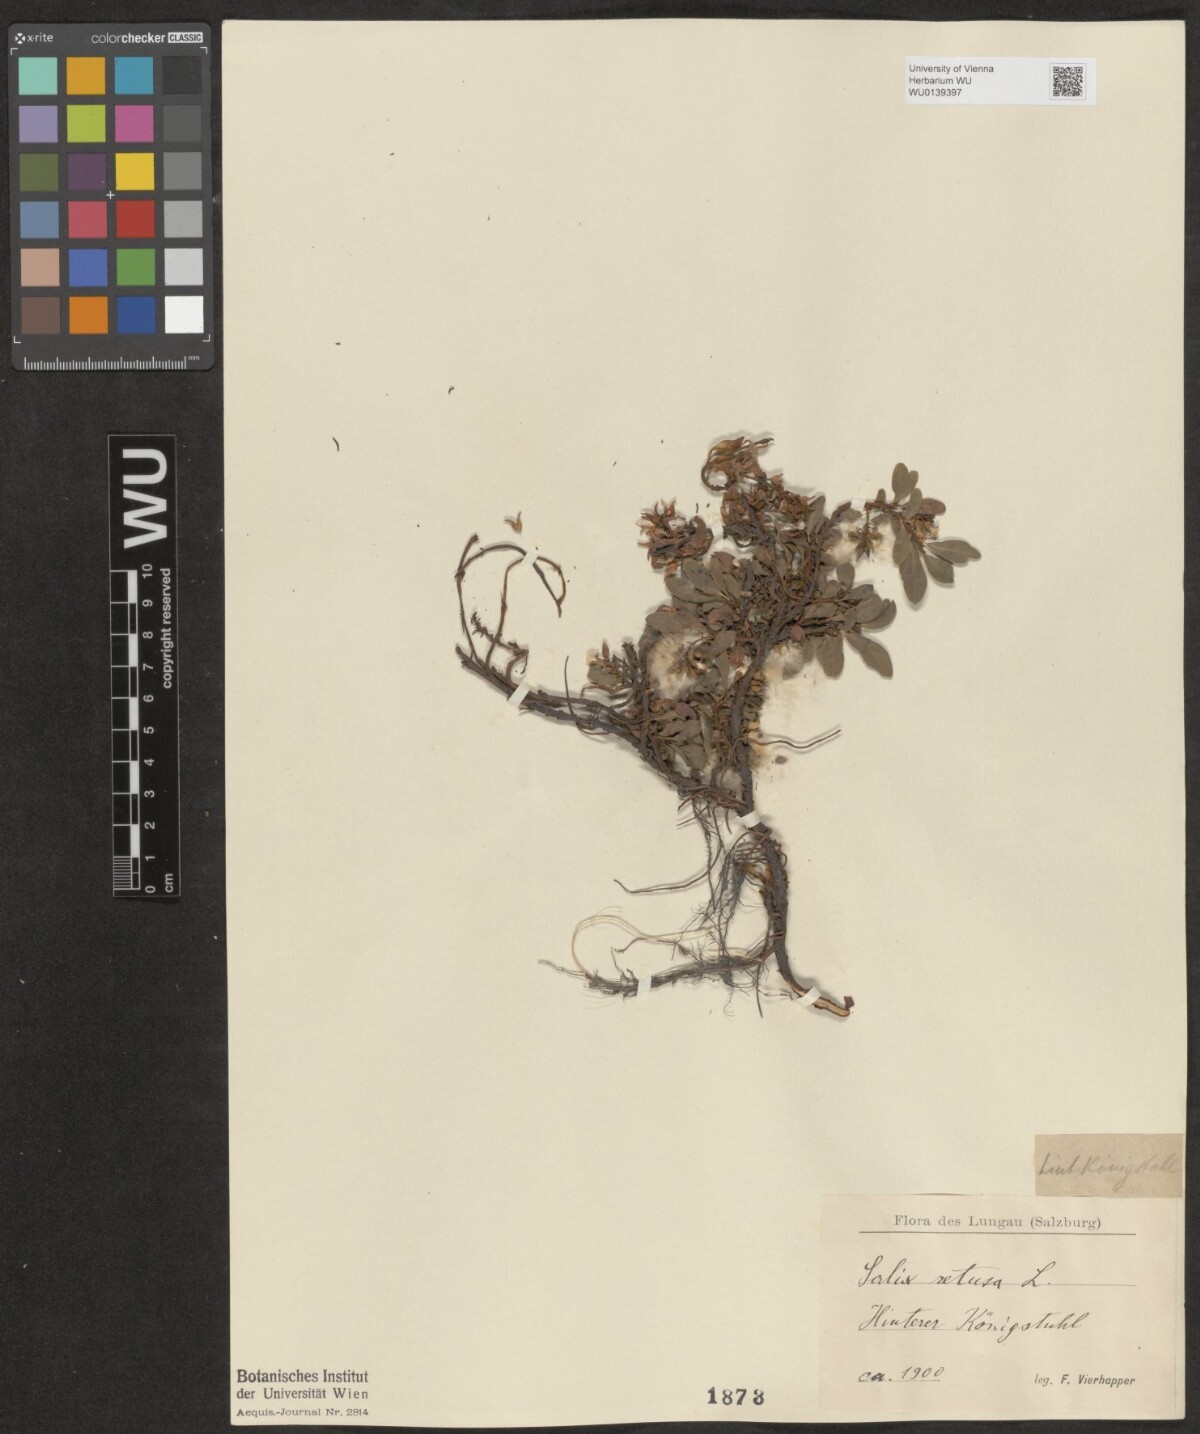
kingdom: Plantae
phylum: Tracheophyta
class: Magnoliopsida
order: Malpighiales
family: Salicaceae
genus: Salix
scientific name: Salix retusa
